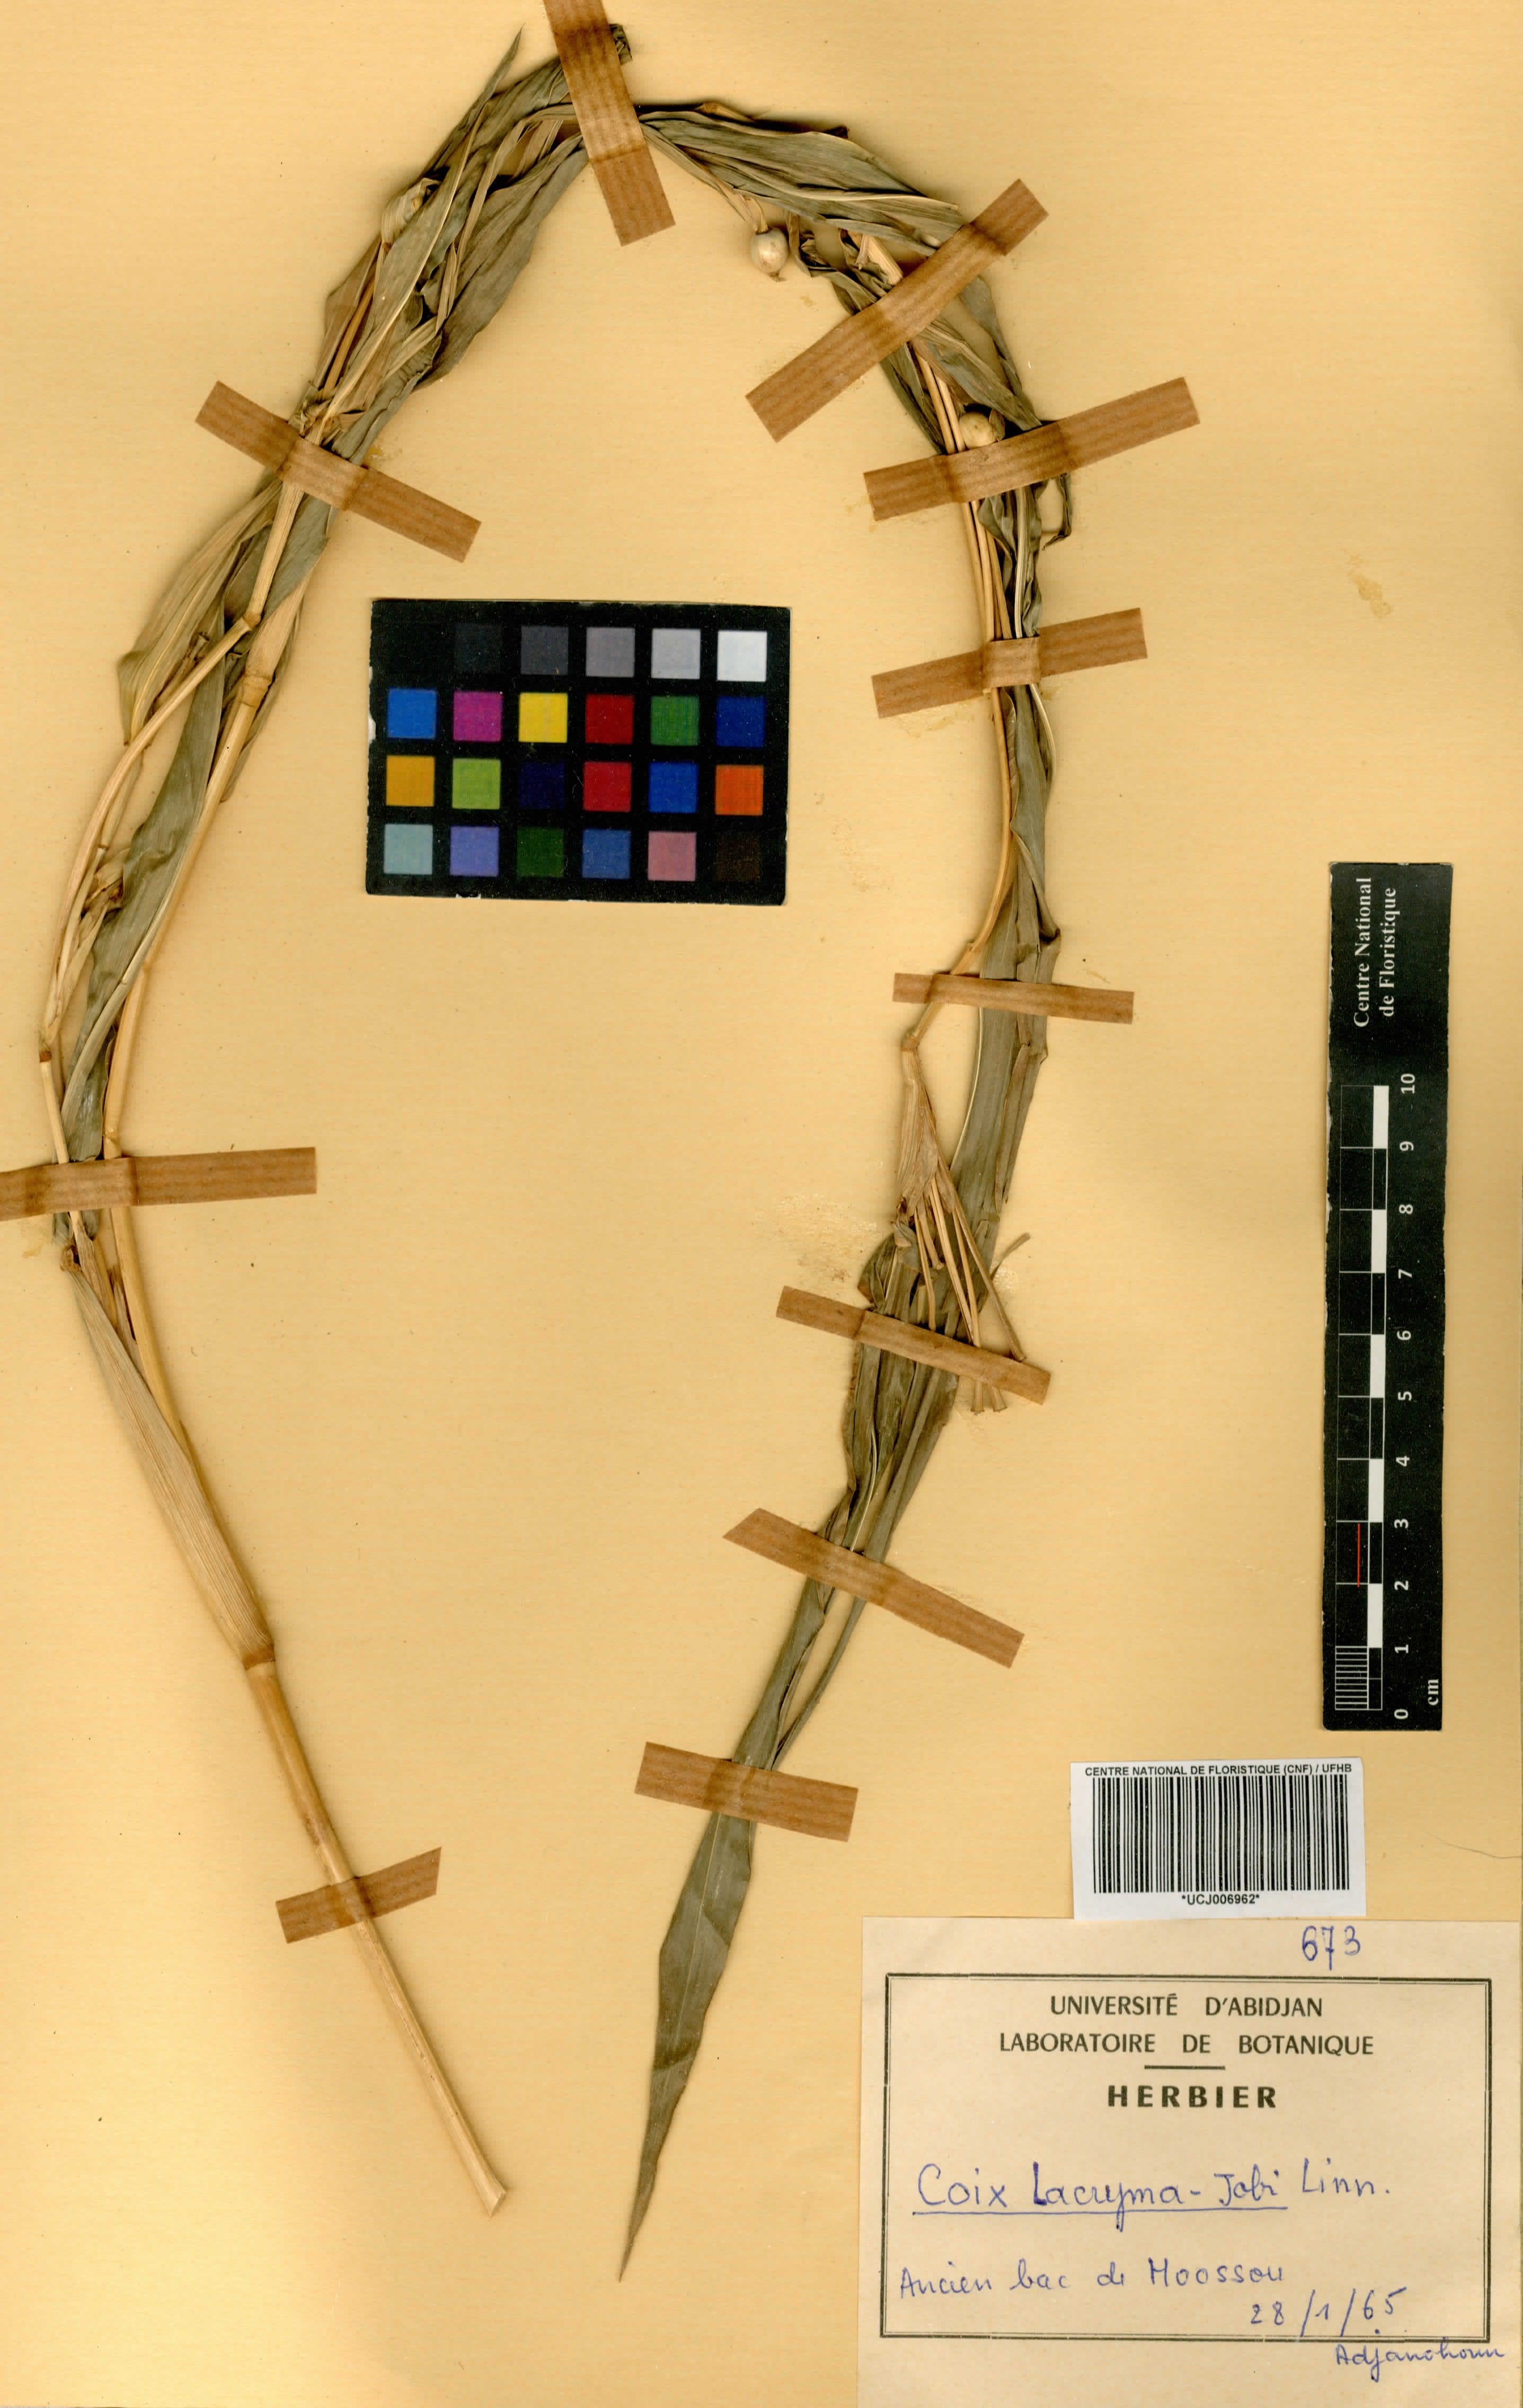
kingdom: Plantae
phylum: Tracheophyta
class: Liliopsida
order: Poales
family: Poaceae
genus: Coix
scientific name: Coix lacryma-jobi
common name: Job's tears
